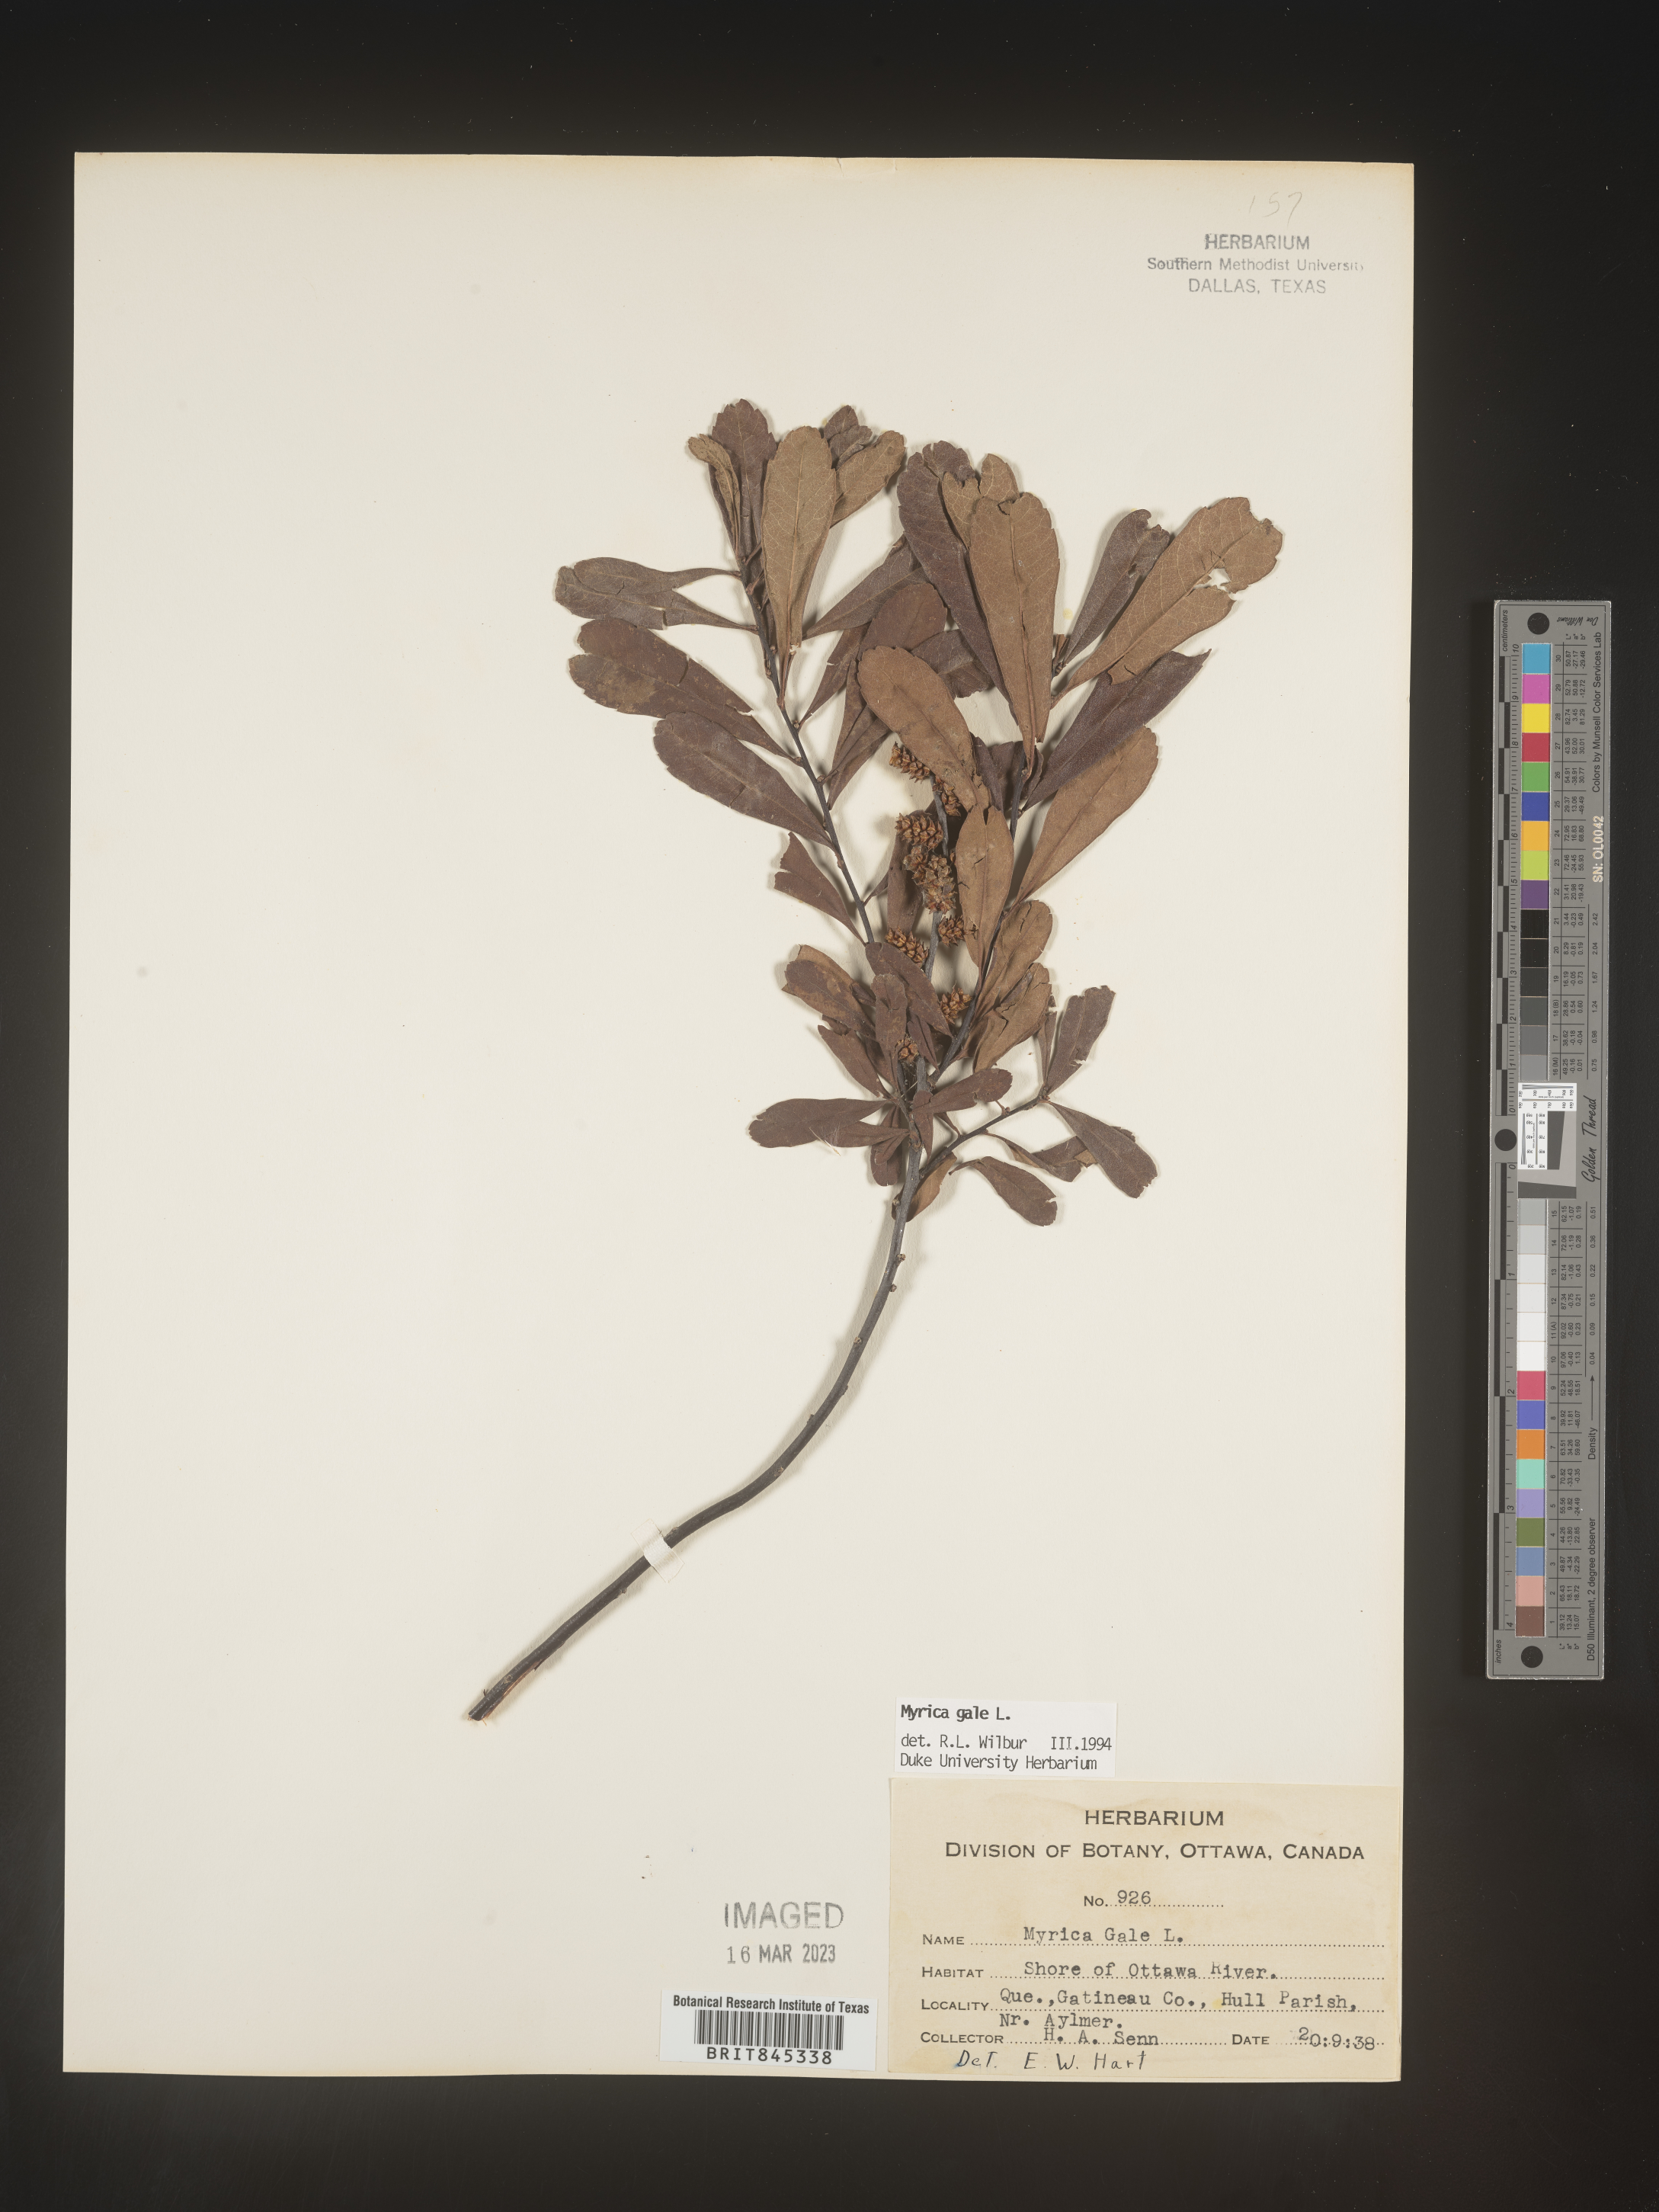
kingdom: Plantae
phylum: Tracheophyta
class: Magnoliopsida
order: Fagales
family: Myricaceae
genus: Myrica
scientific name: Myrica gale
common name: Sweet gale
